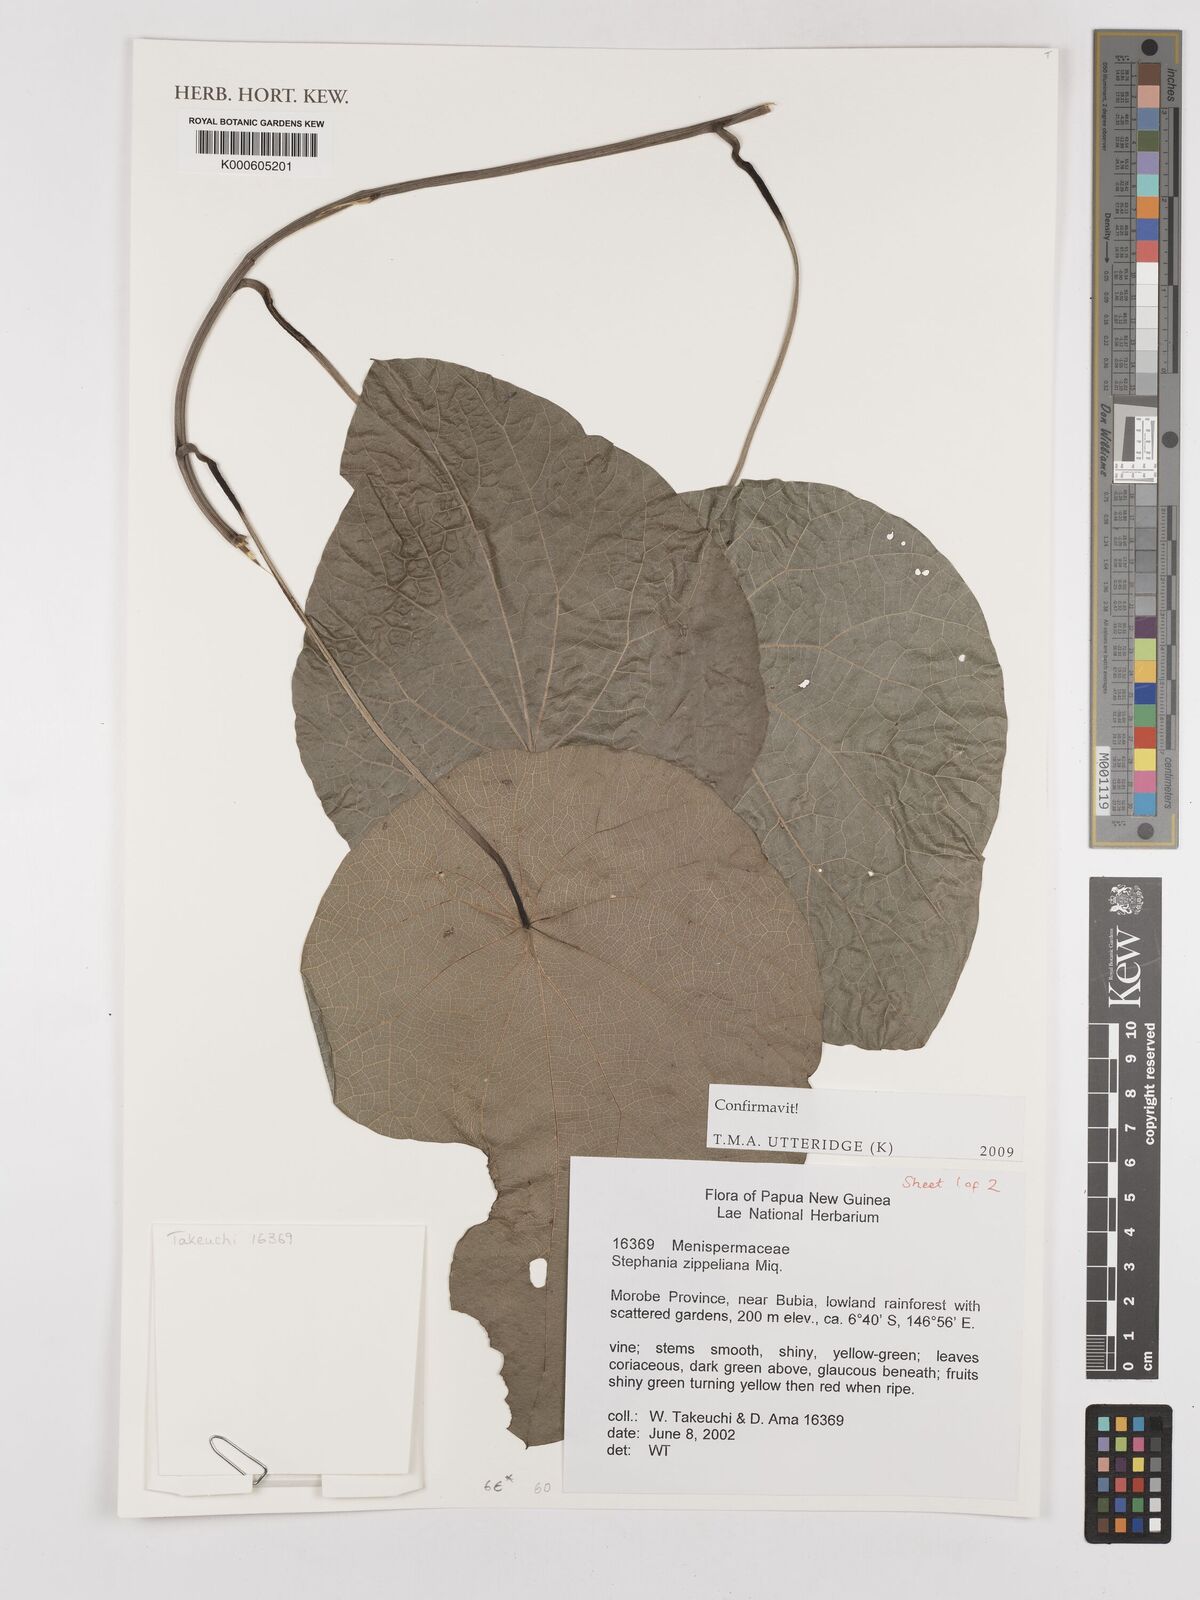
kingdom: Plantae
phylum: Tracheophyta
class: Magnoliopsida
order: Ranunculales
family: Menispermaceae
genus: Stephania
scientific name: Stephania zippeliana
